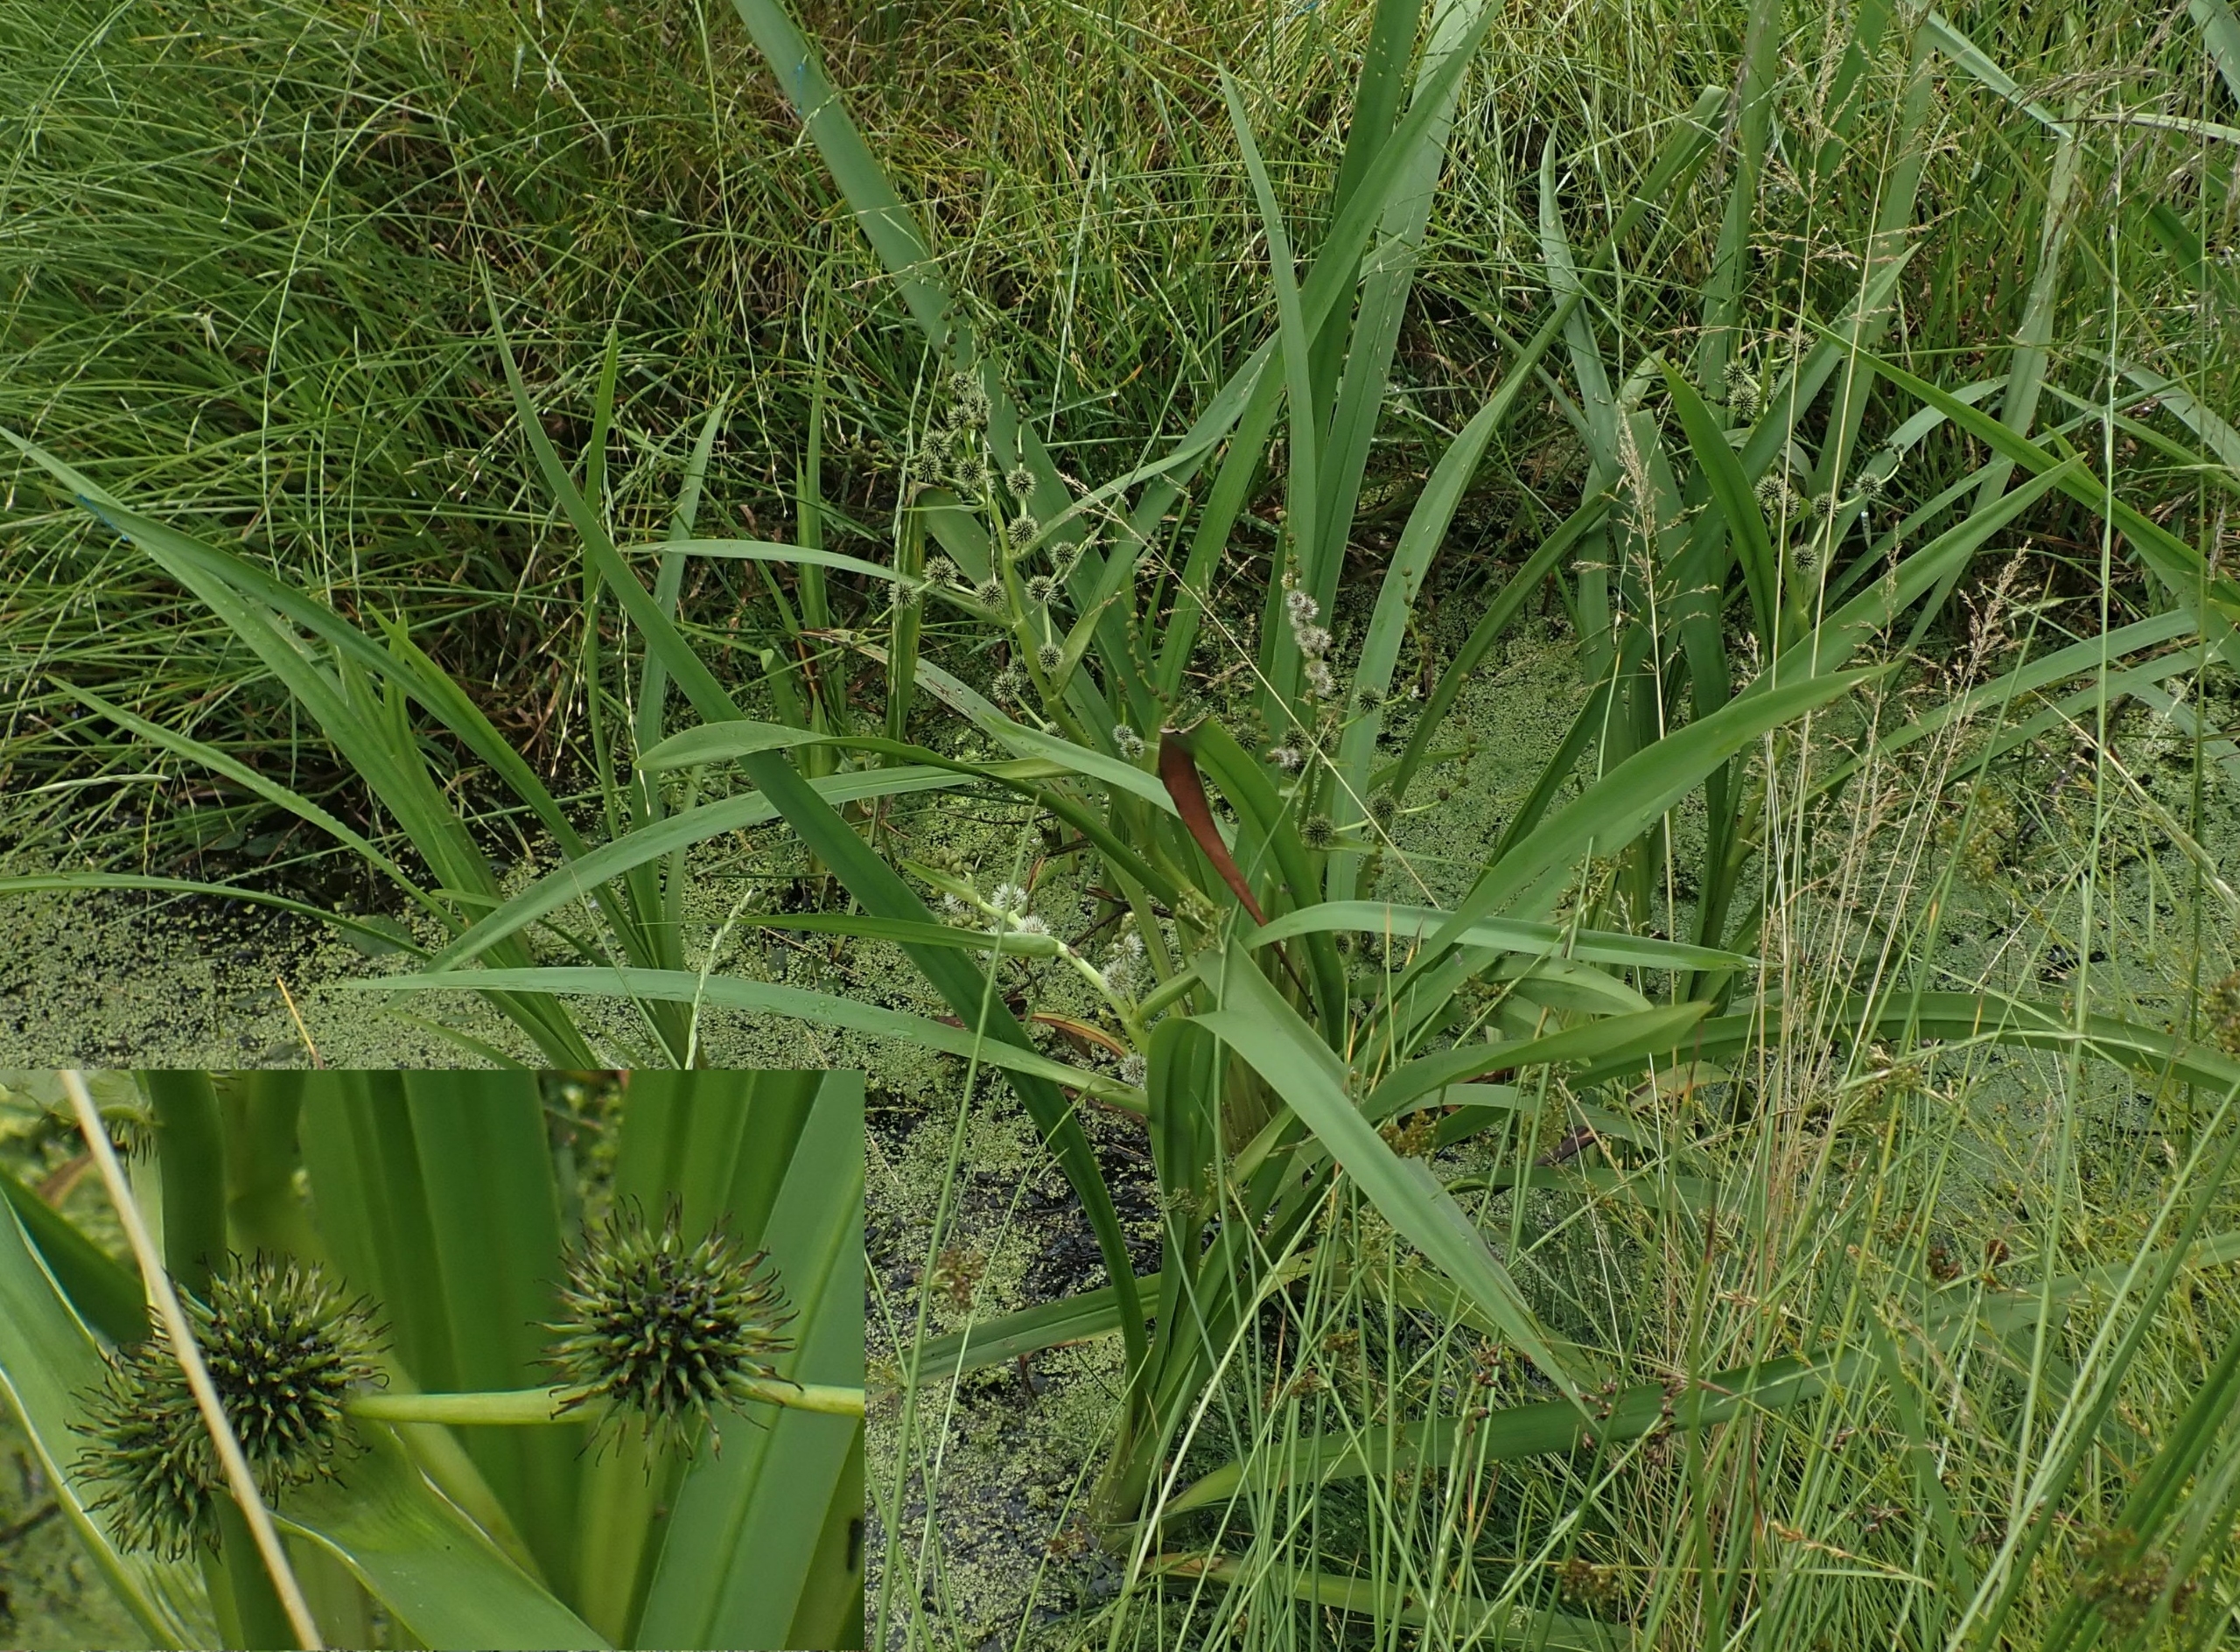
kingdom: Plantae
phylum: Tracheophyta
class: Liliopsida
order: Poales
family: Typhaceae
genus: Sparganium
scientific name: Sparganium erectum
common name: Grenet pindsvineknop
